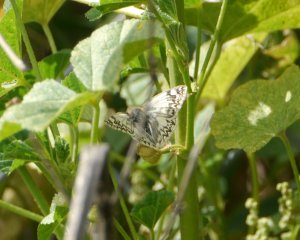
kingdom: Animalia
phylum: Arthropoda
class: Insecta
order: Lepidoptera
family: Hesperiidae
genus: Heliopetes
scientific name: Heliopetes ericetorum
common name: Northern White-Skipper
